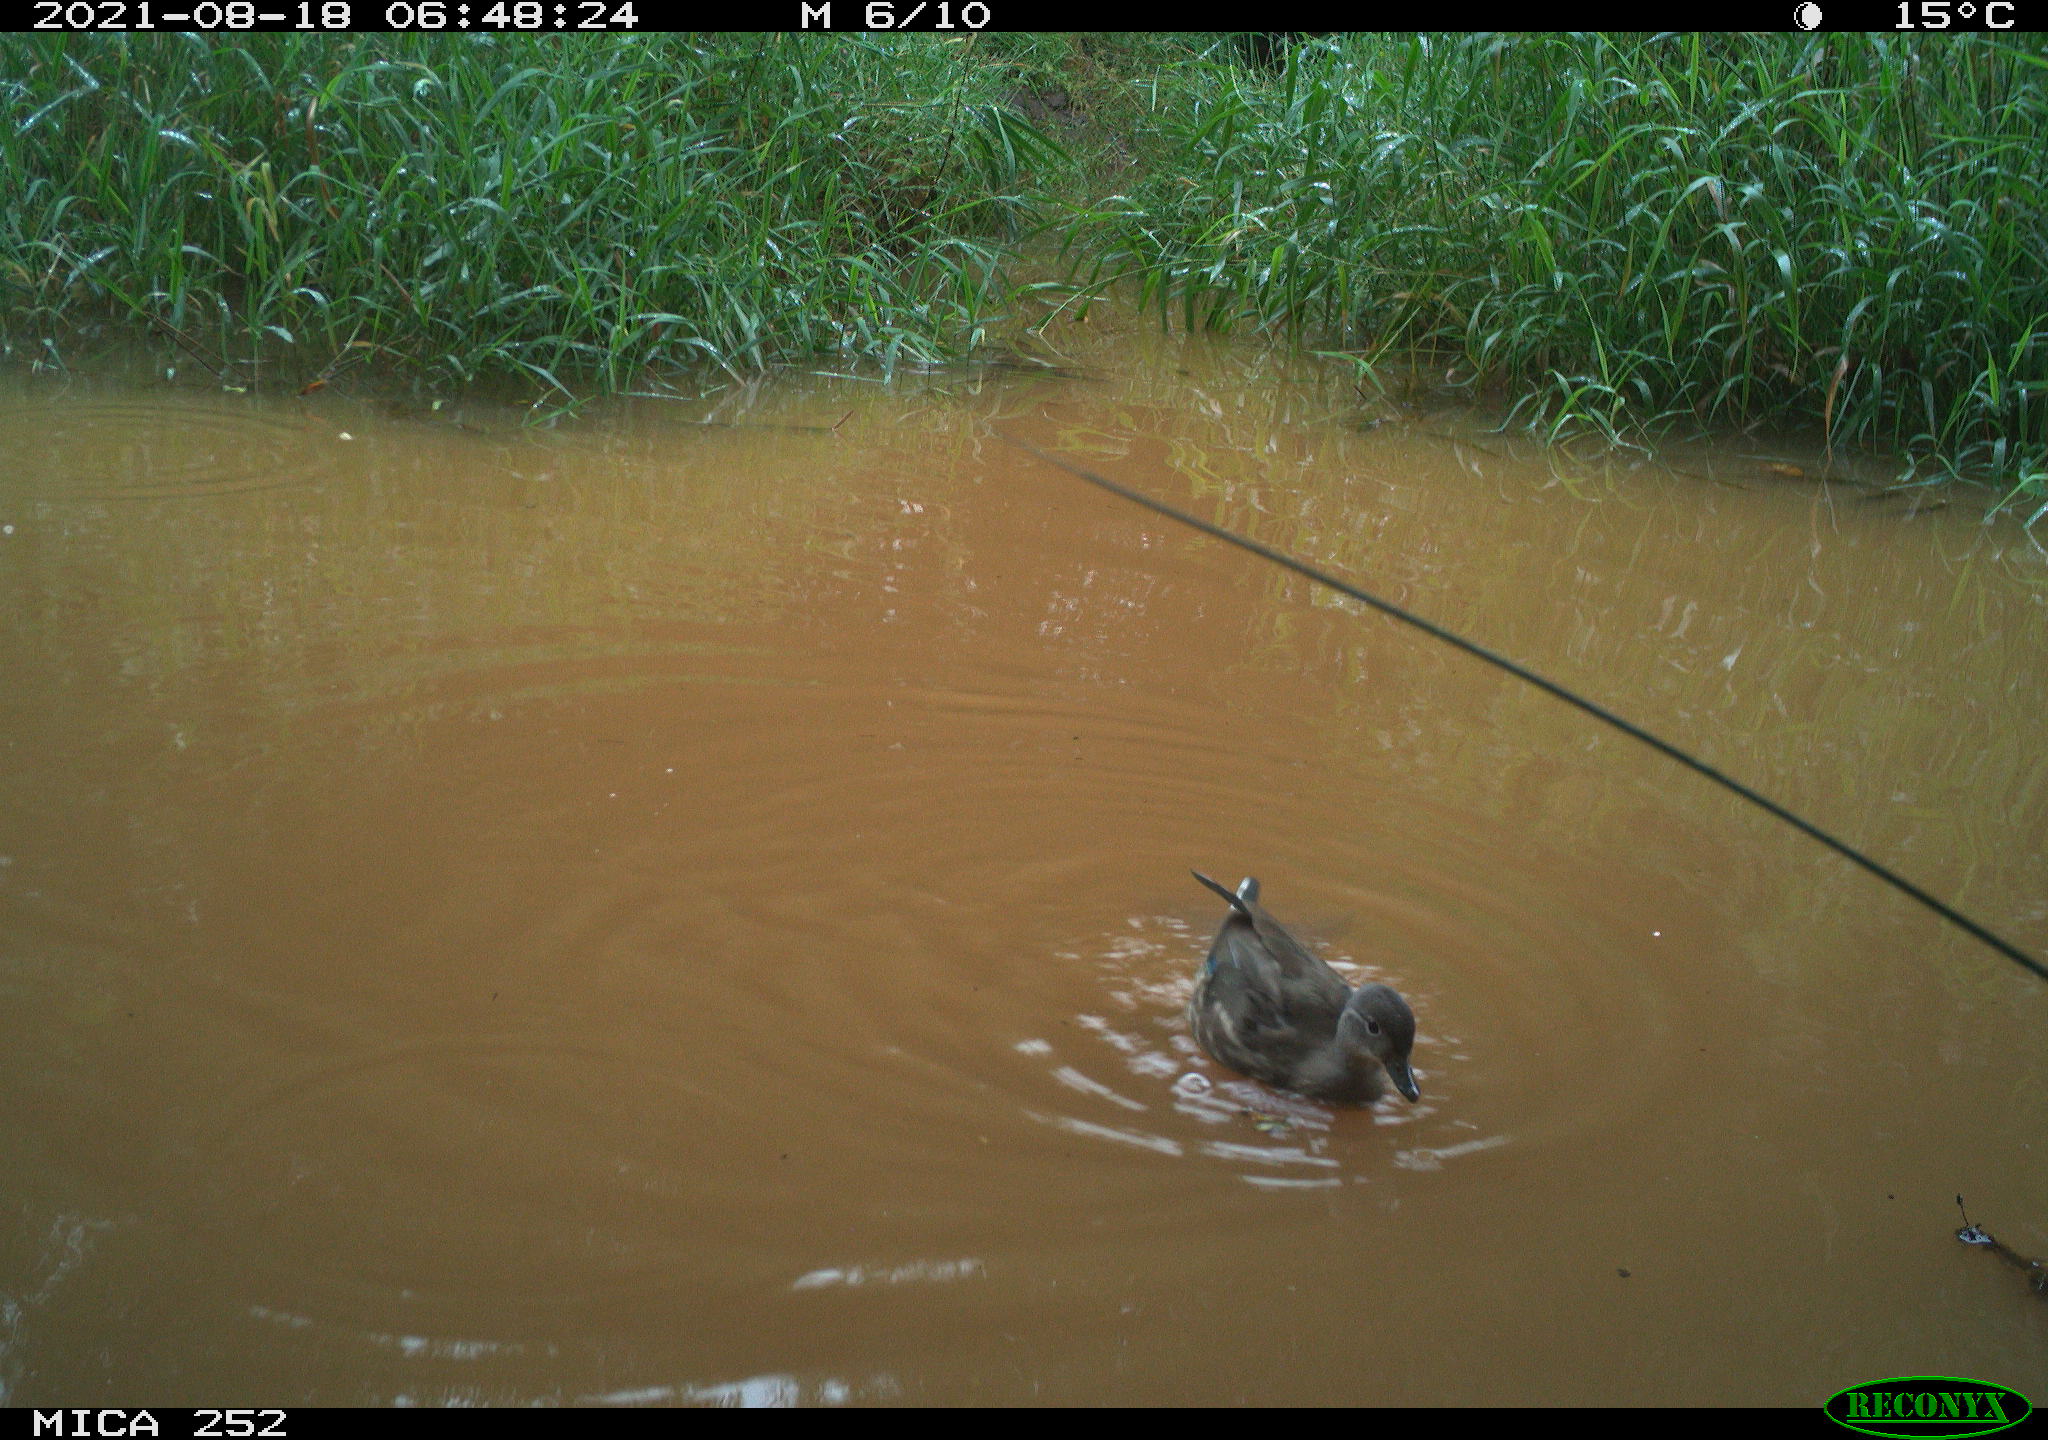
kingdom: Animalia
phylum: Chordata
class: Aves
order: Gruiformes
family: Rallidae
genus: Gallinula
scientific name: Gallinula chloropus
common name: Common moorhen
